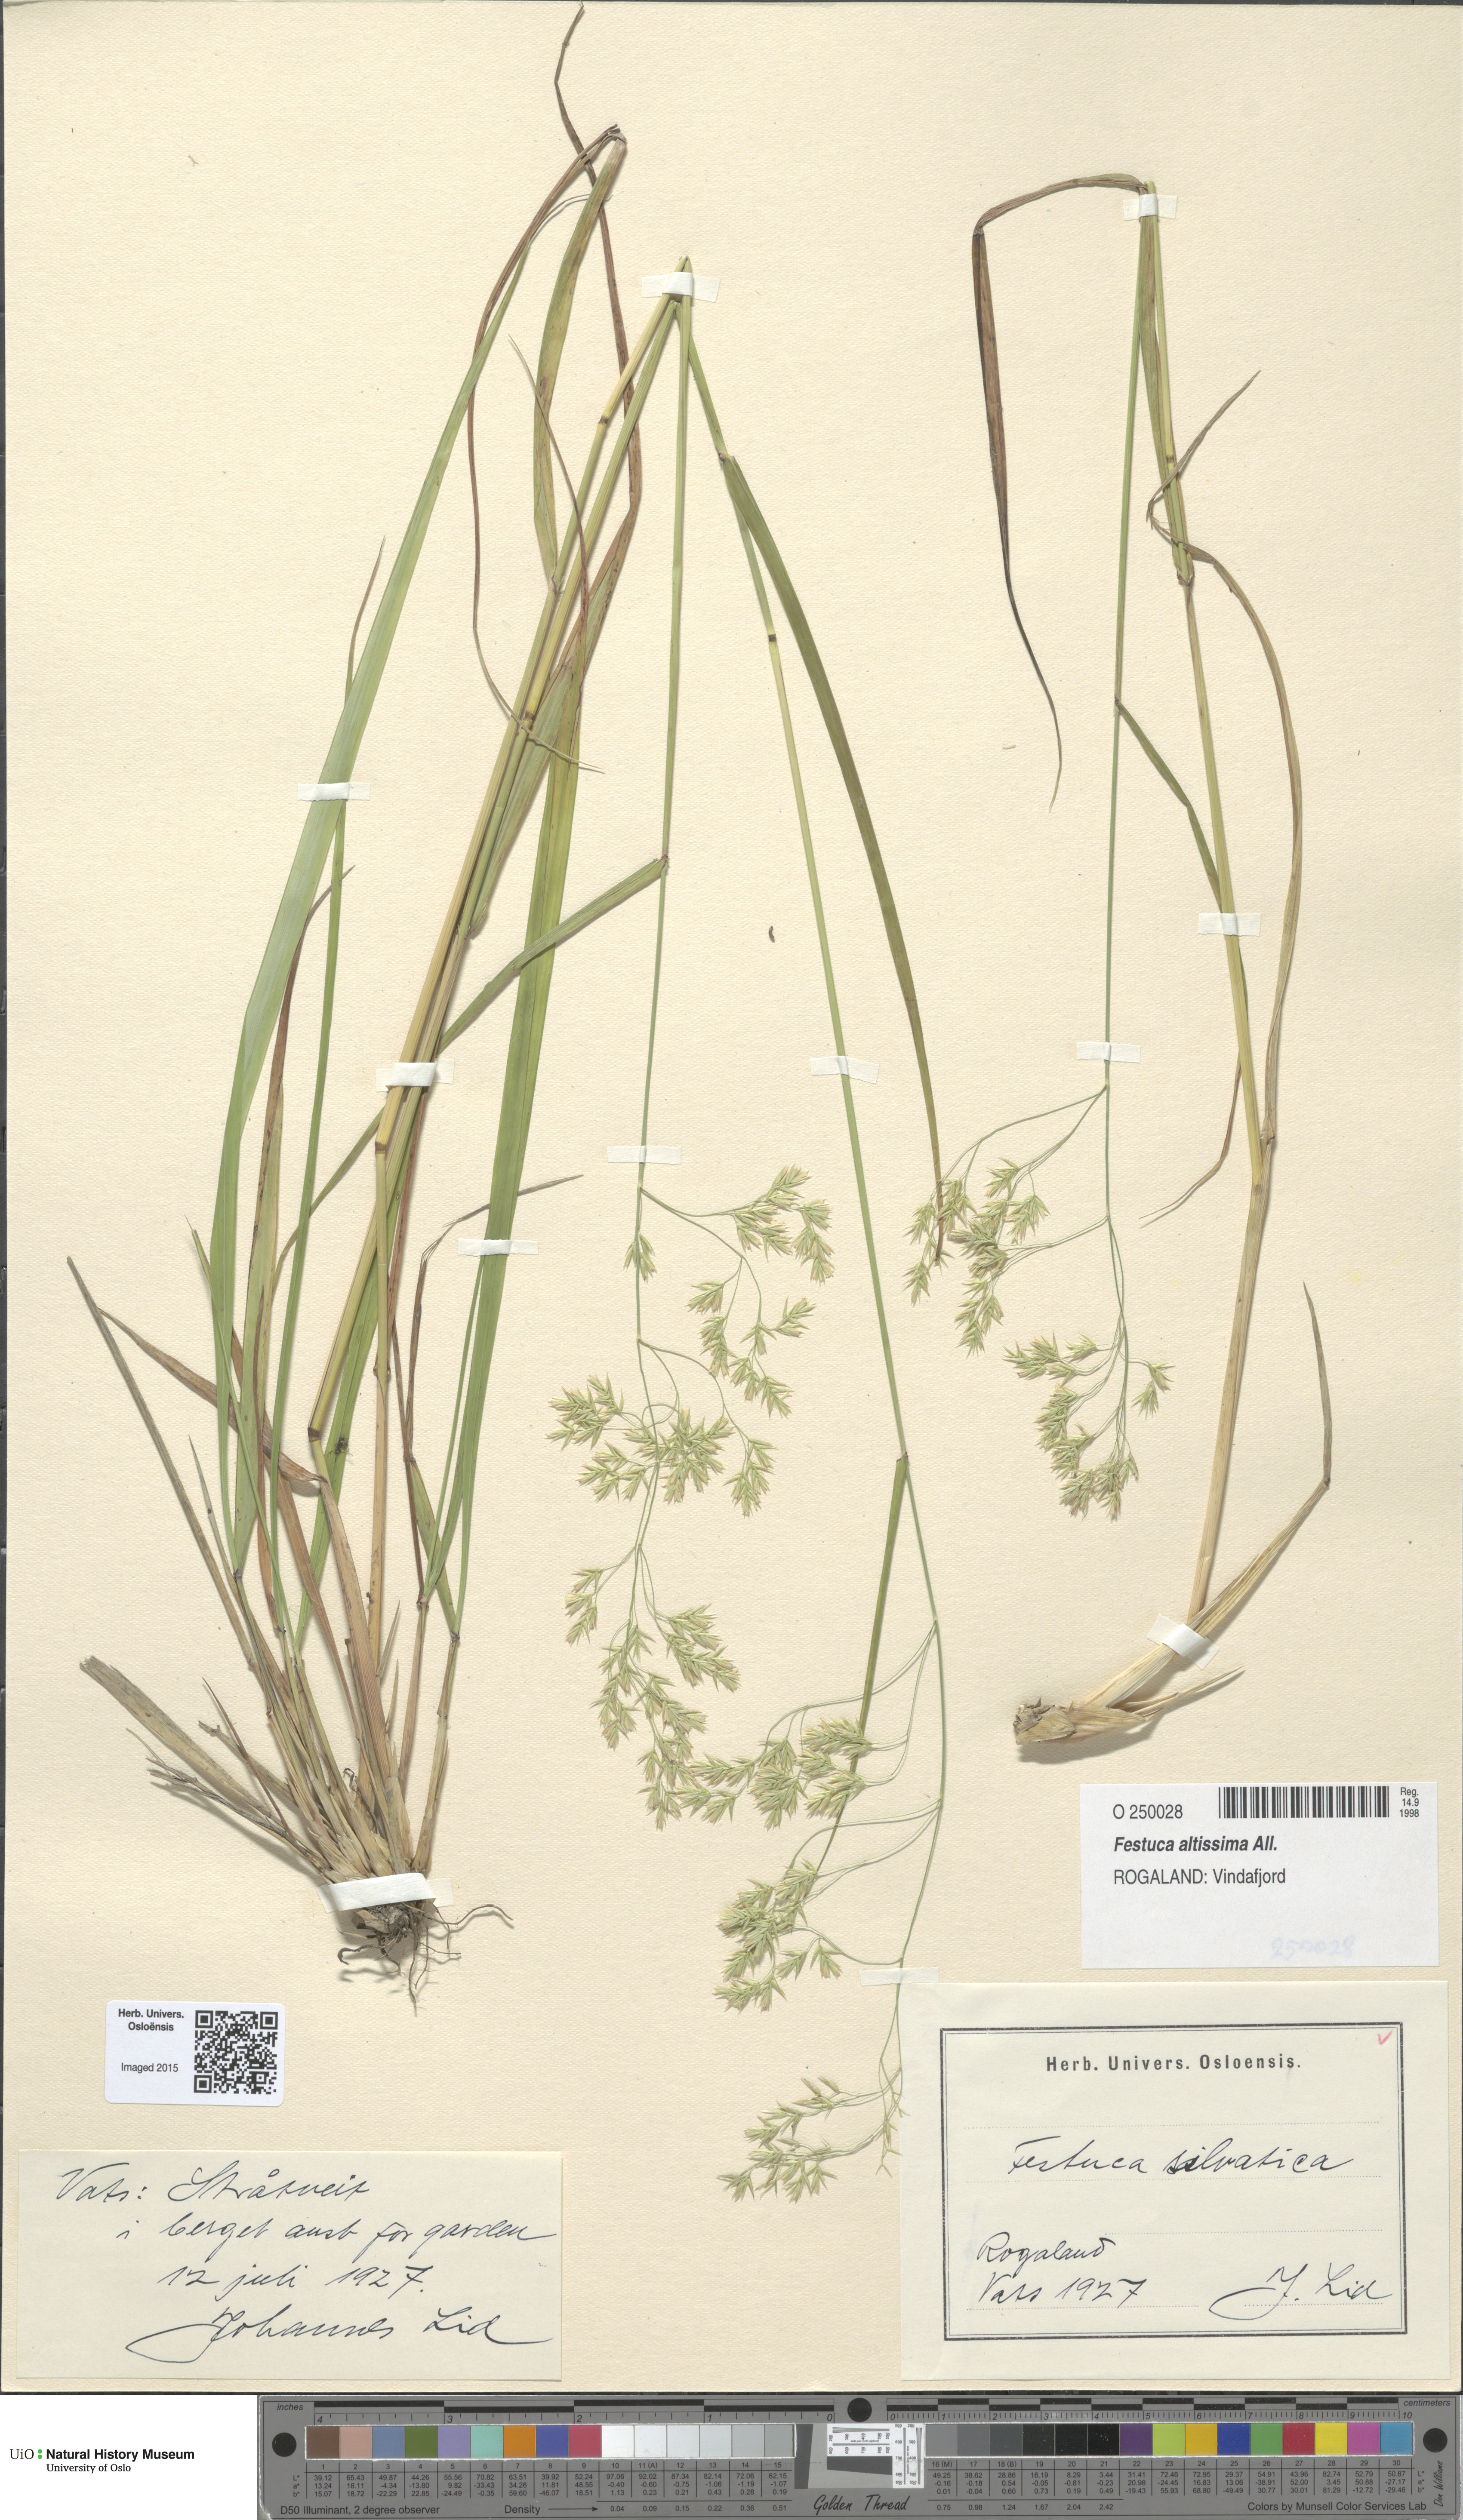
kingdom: Plantae
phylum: Tracheophyta
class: Liliopsida
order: Poales
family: Poaceae
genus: Festuca
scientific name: Festuca altissima
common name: Wood fescue
